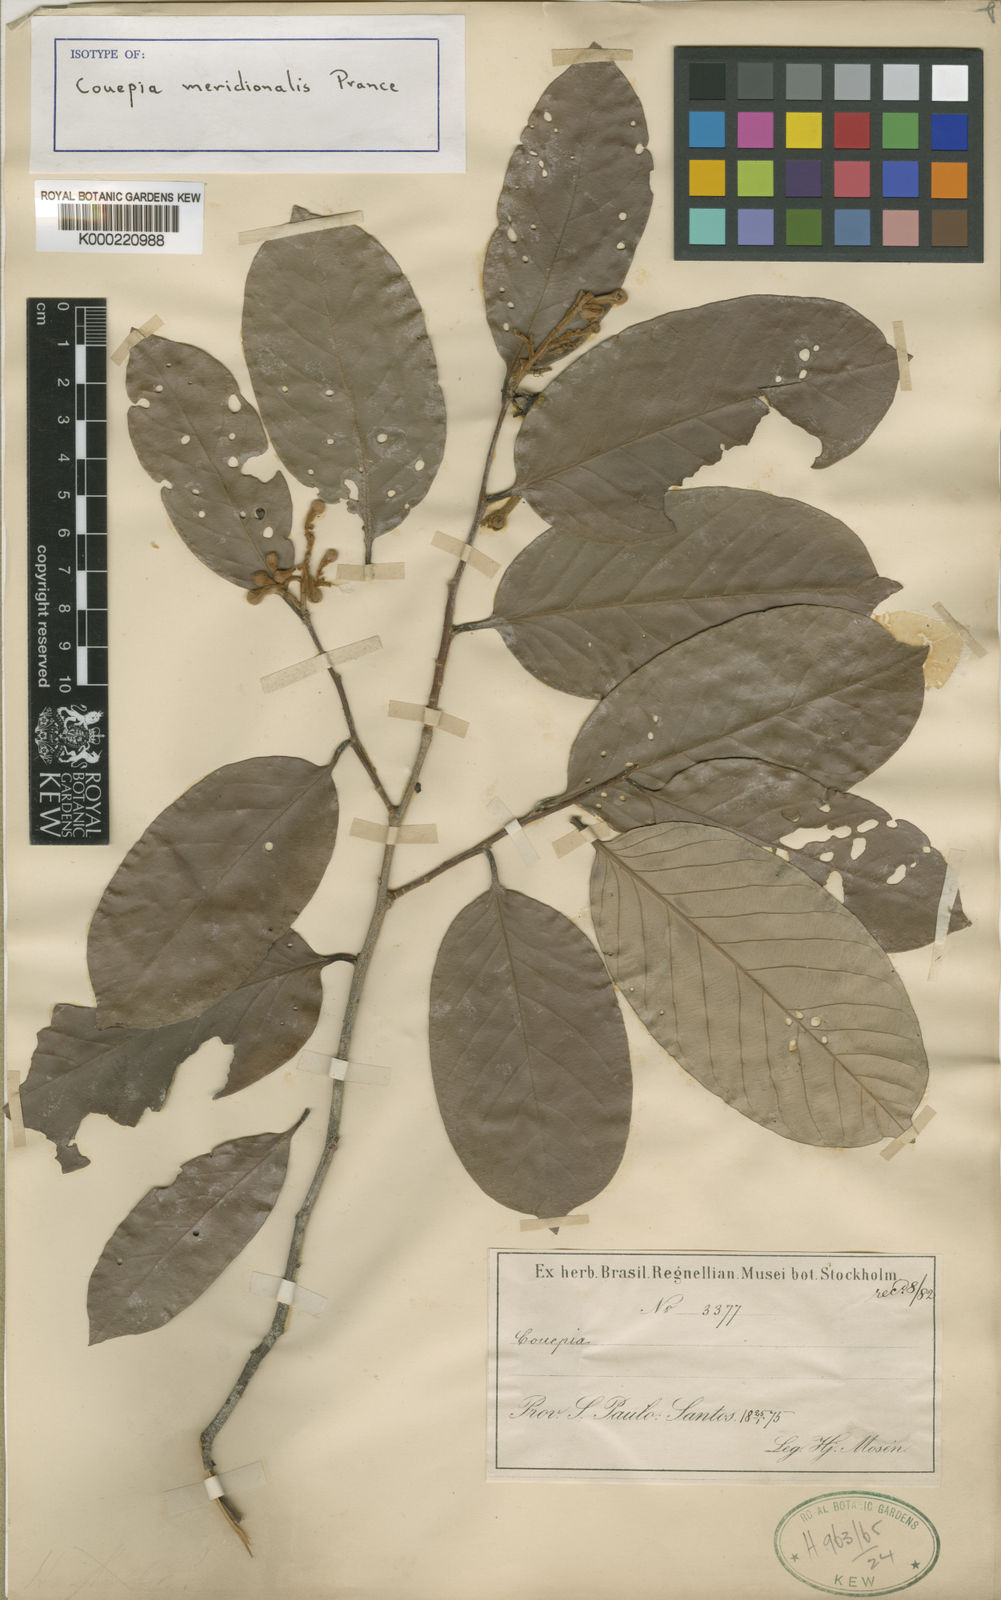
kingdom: Plantae
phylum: Tracheophyta
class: Magnoliopsida
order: Malpighiales
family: Chrysobalanaceae
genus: Couepia
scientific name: Couepia meridionalis
